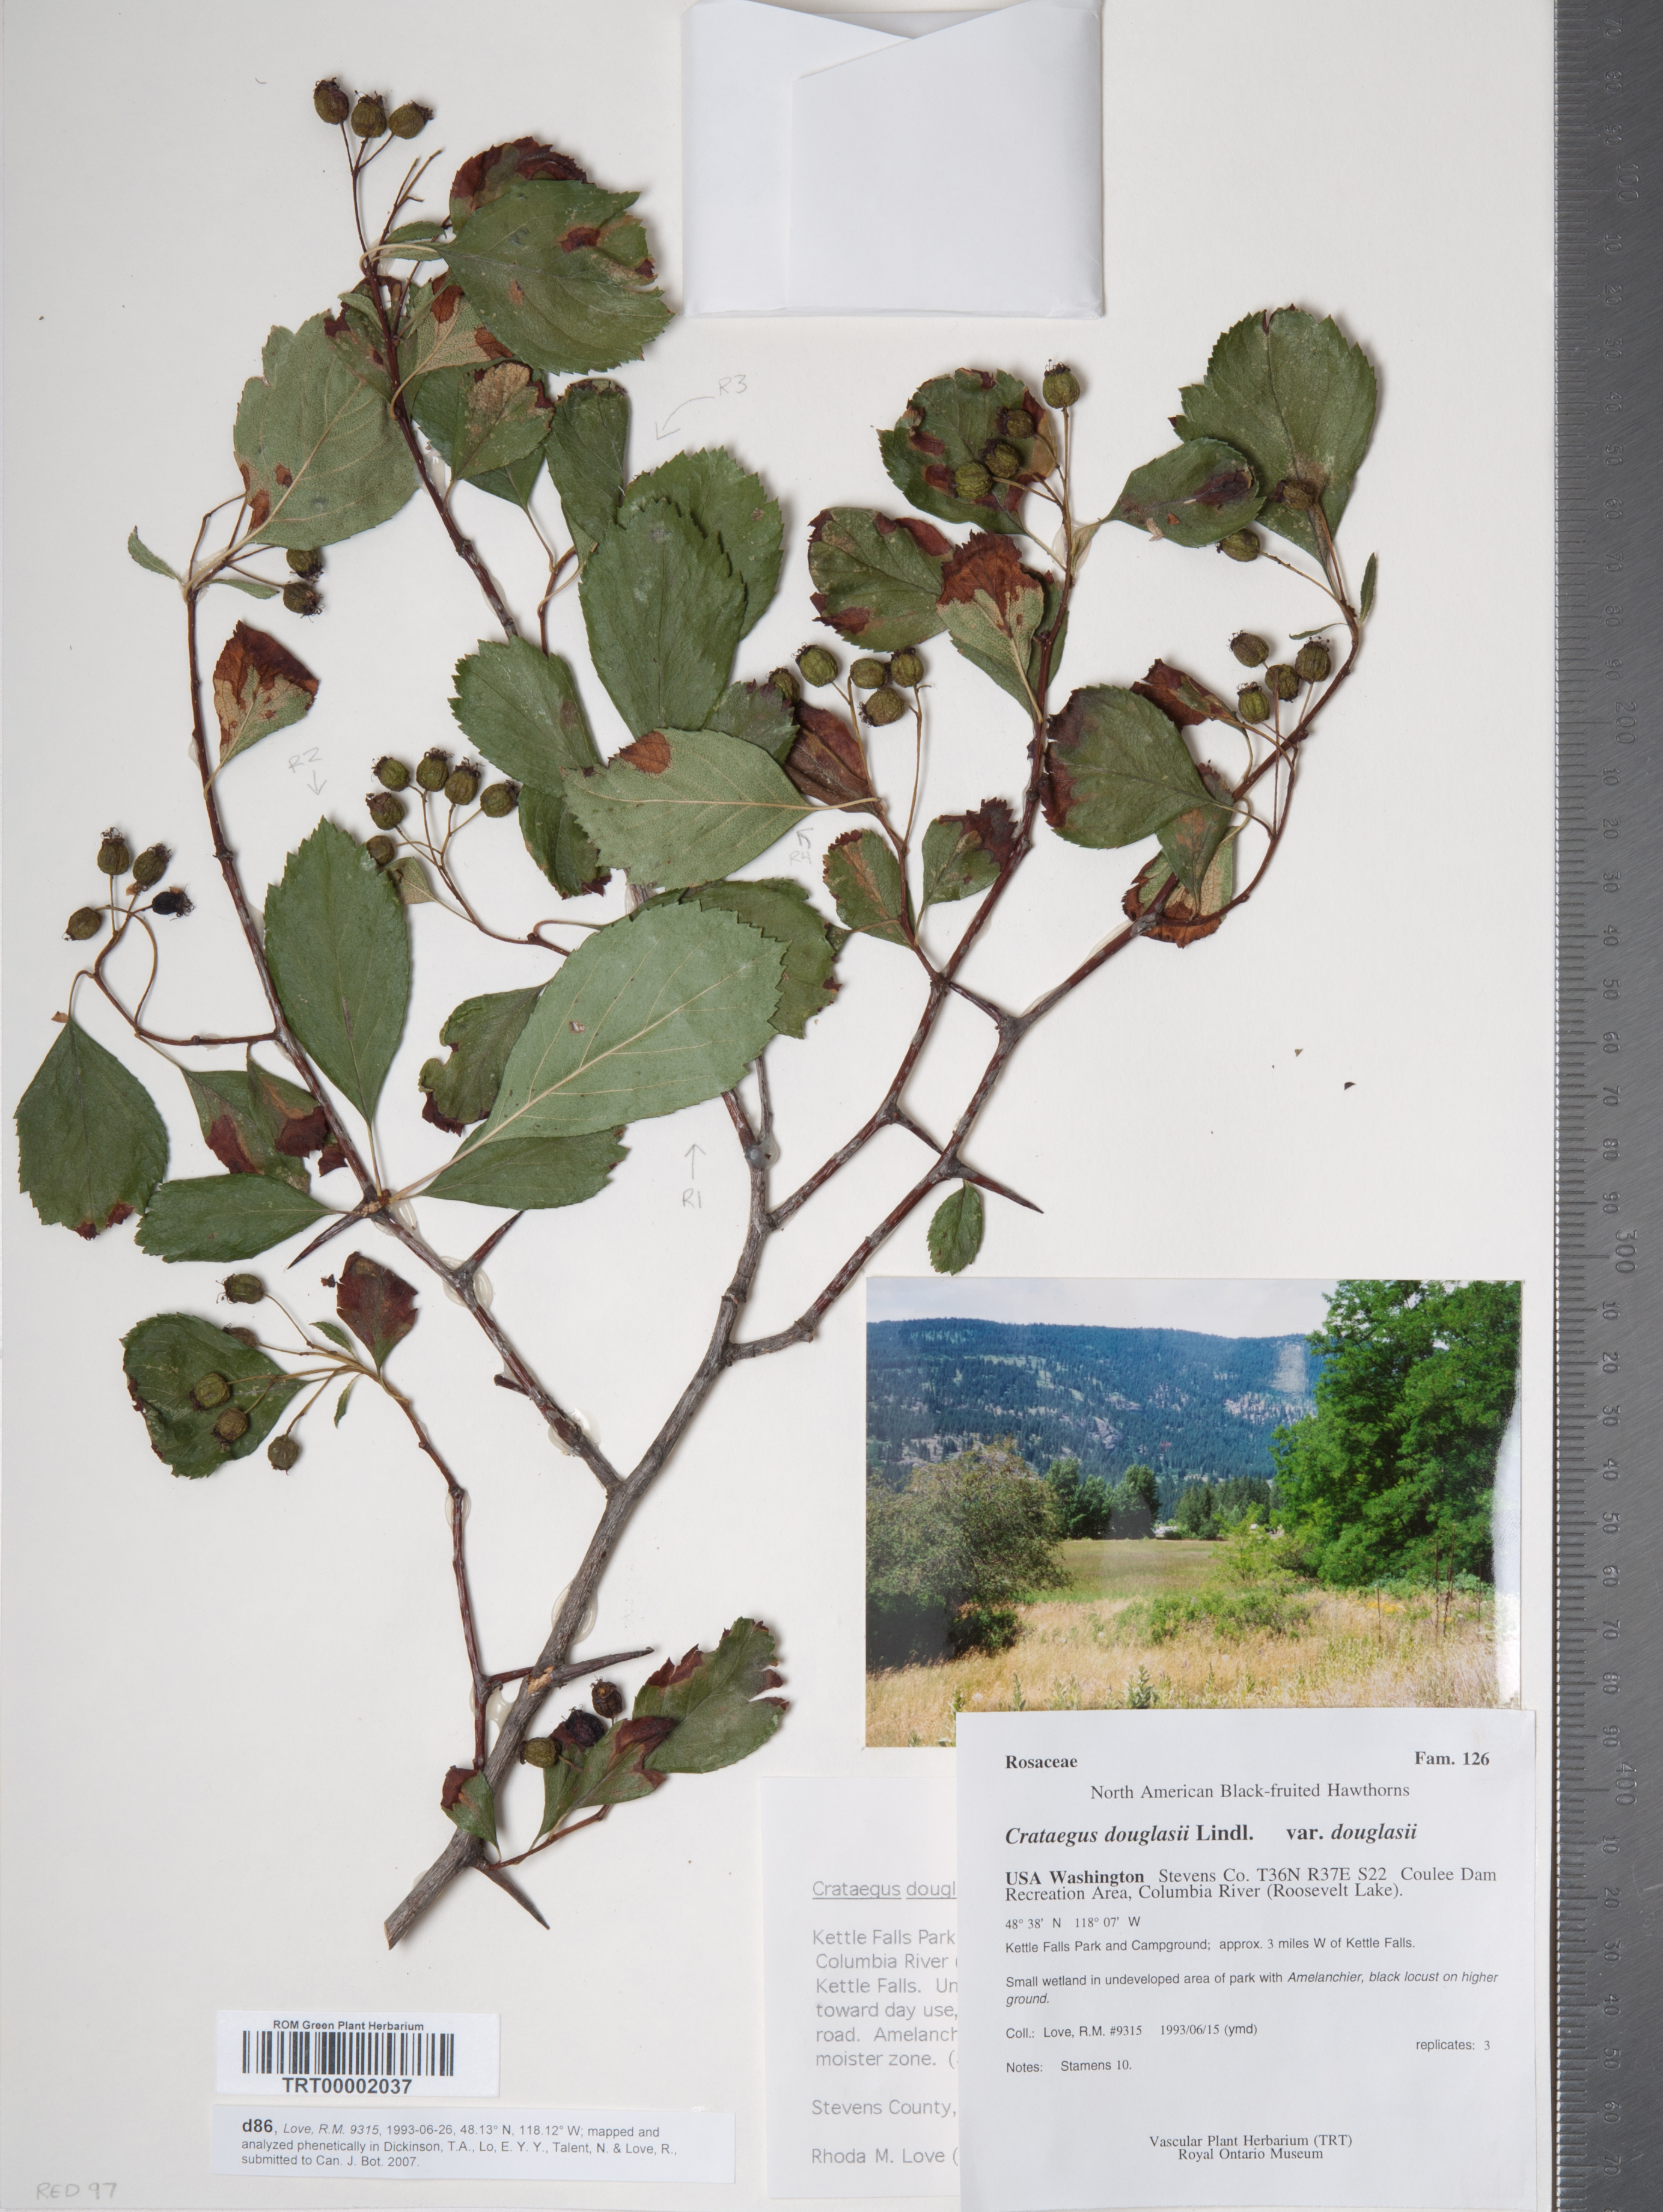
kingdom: Plantae
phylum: Tracheophyta
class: Magnoliopsida
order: Rosales
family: Rosaceae
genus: Crataegus
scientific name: Crataegus douglasii
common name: Black hawthorn
